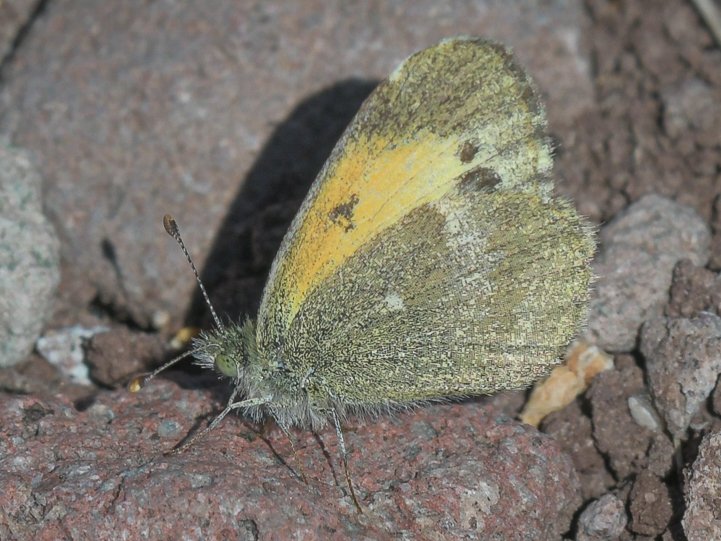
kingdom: Animalia
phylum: Arthropoda
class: Insecta
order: Lepidoptera
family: Pieridae
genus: Nathalis
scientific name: Nathalis iole
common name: Dainty Sulphur
